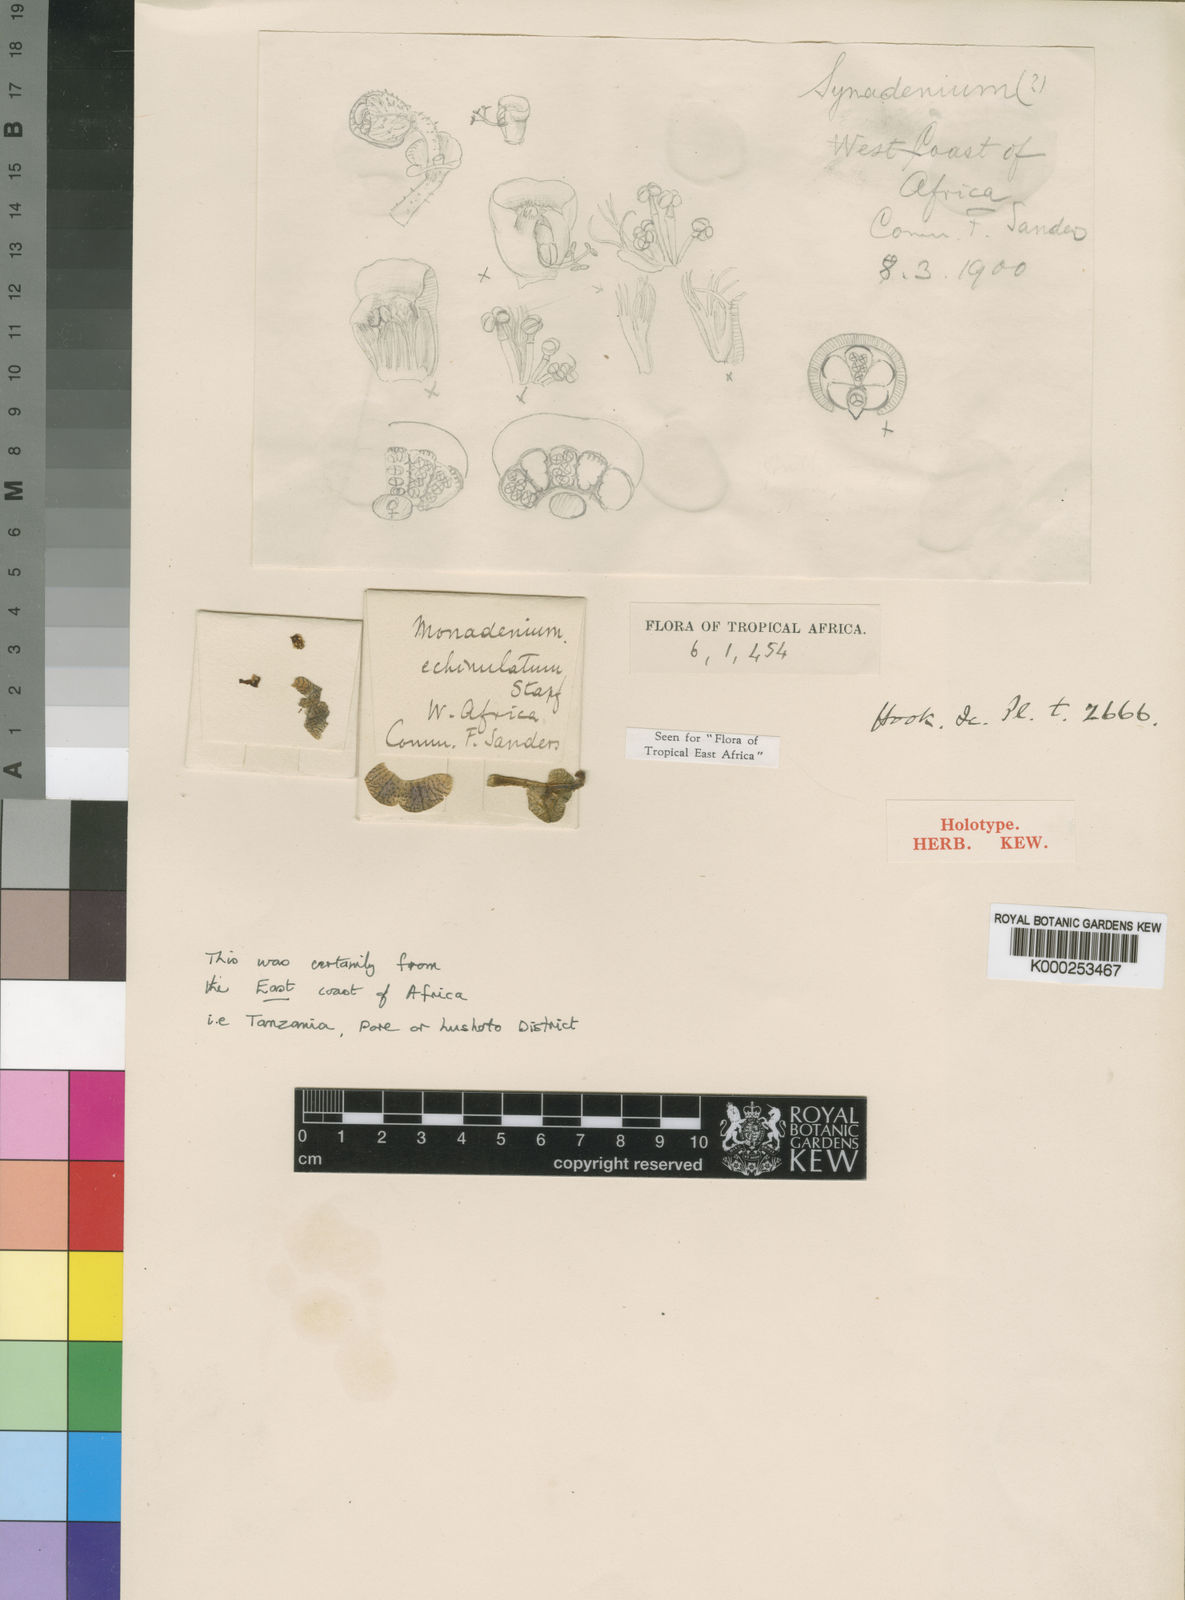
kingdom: Plantae
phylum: Tracheophyta
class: Magnoliopsida
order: Malpighiales
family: Euphorbiaceae
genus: Euphorbia
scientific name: Euphorbia echinulata
